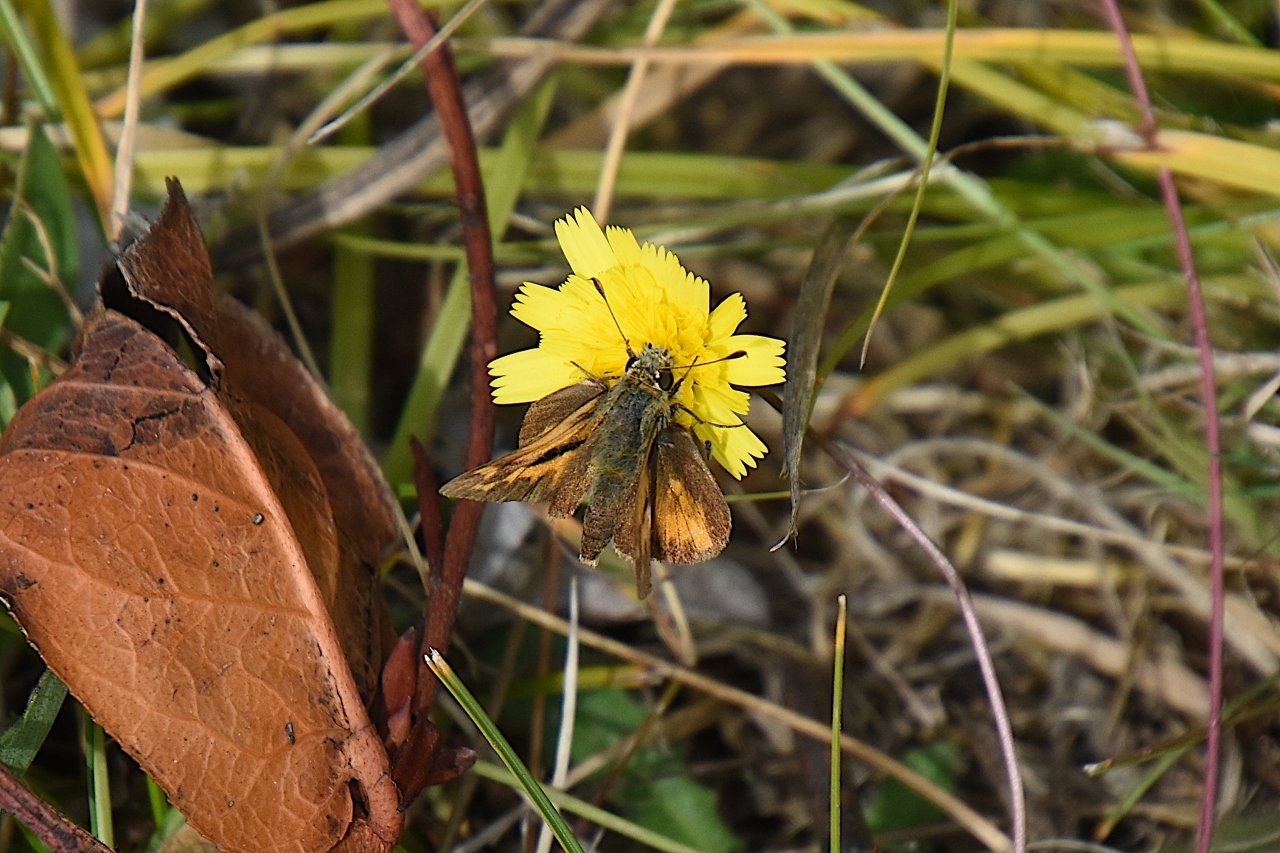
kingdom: Animalia
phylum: Arthropoda
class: Insecta
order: Lepidoptera
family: Hesperiidae
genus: Ochlodes
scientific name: Ochlodes sylvanoides
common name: Woodland Skipper
